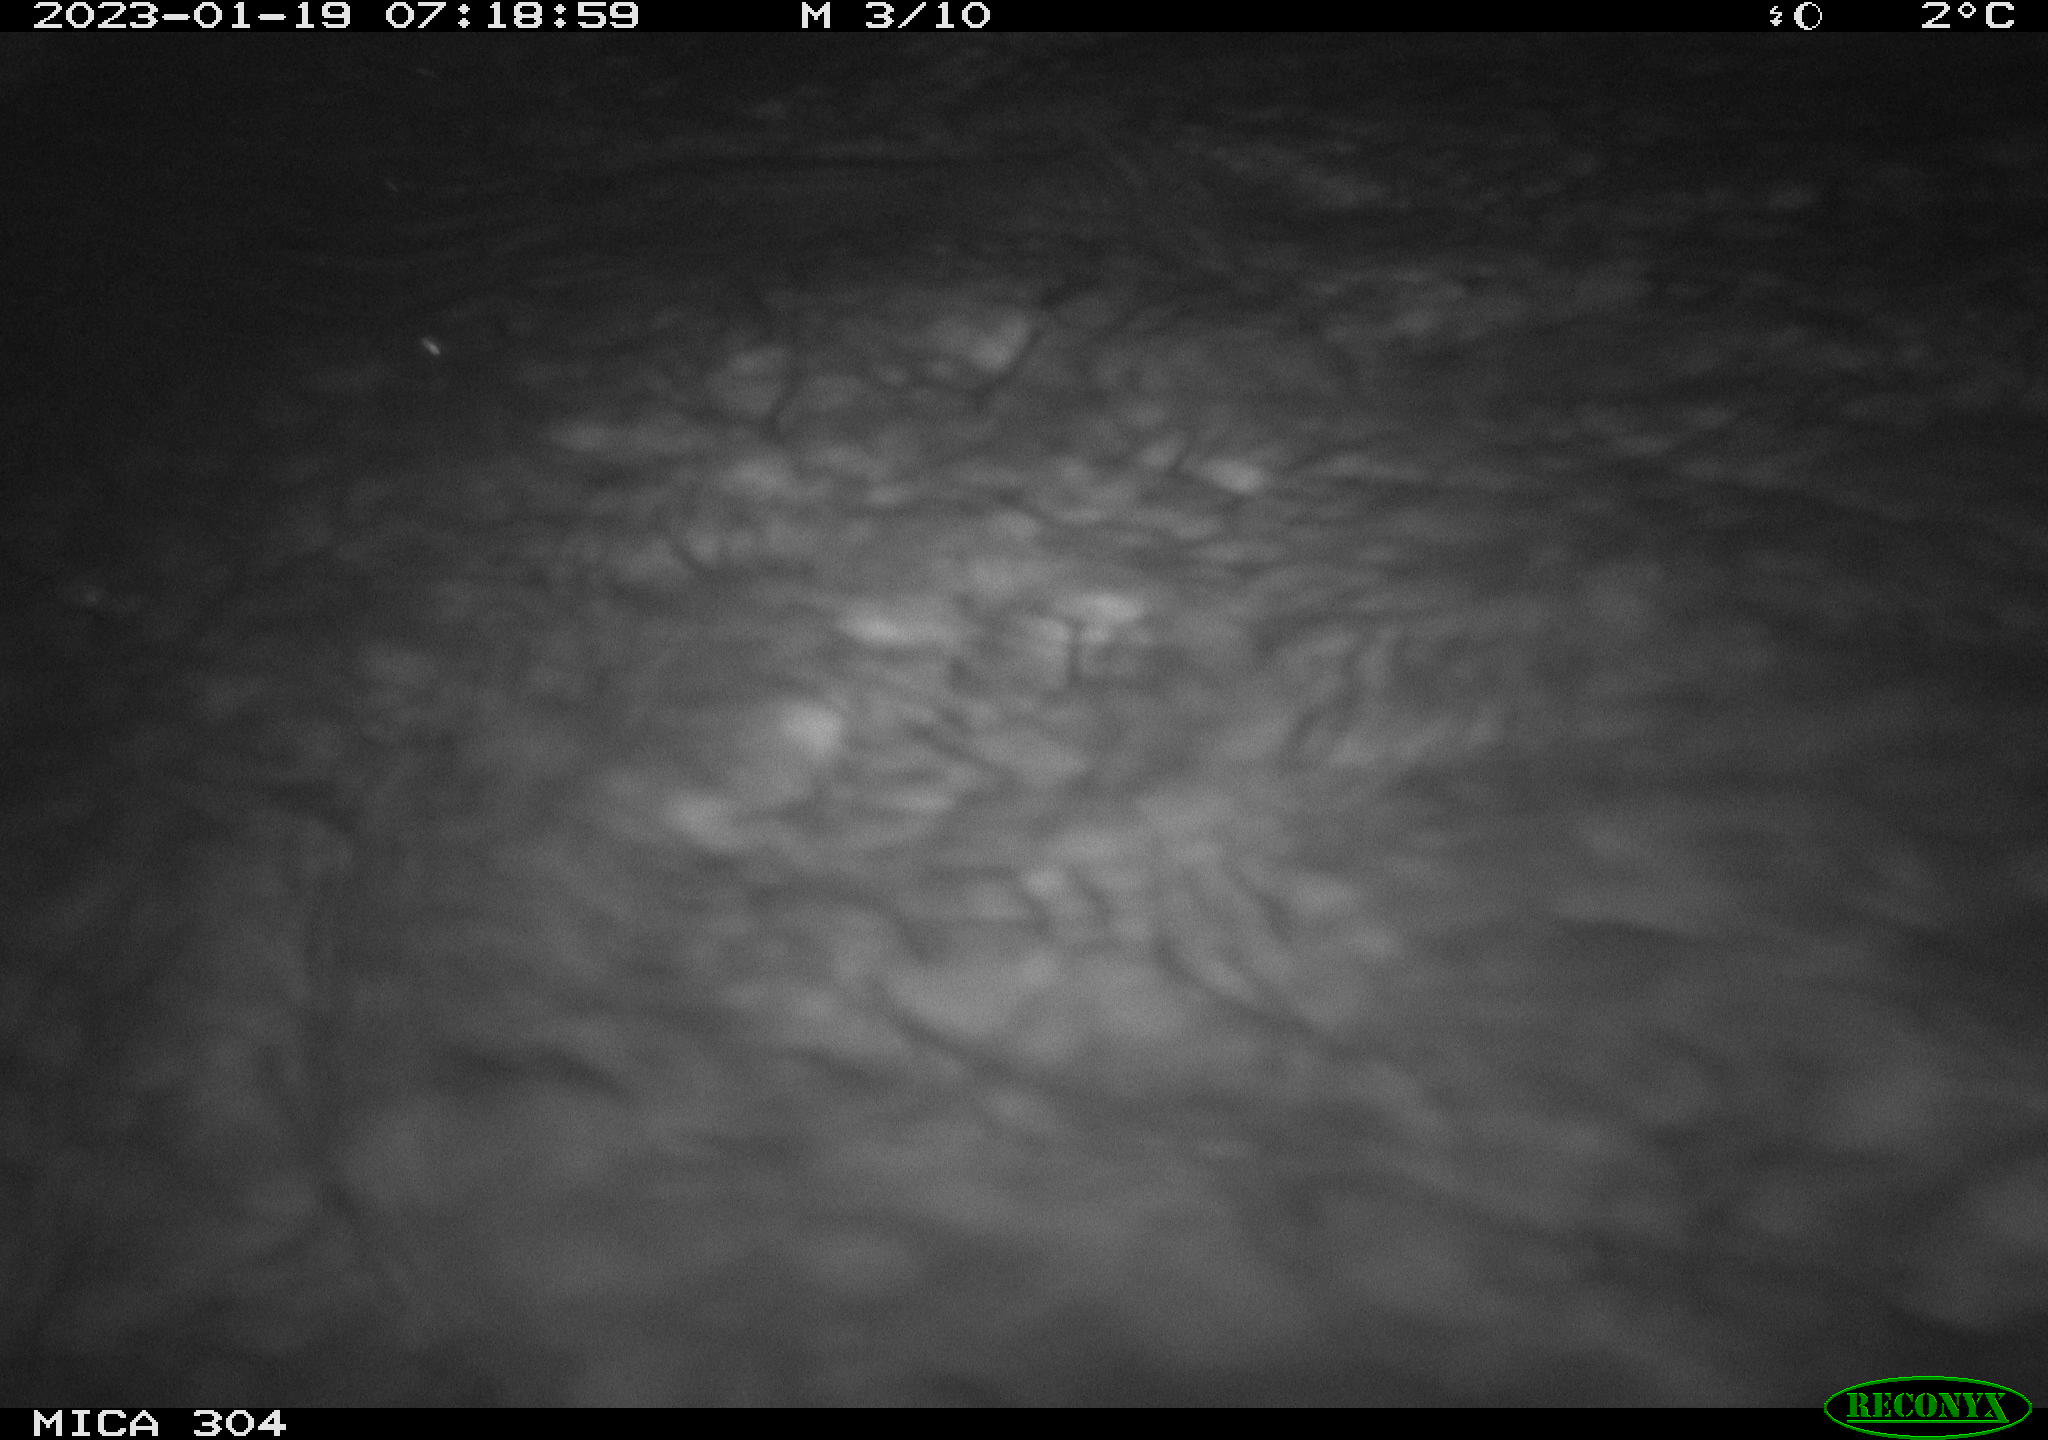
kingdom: Animalia
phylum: Chordata
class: Mammalia
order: Rodentia
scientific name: Rodentia
